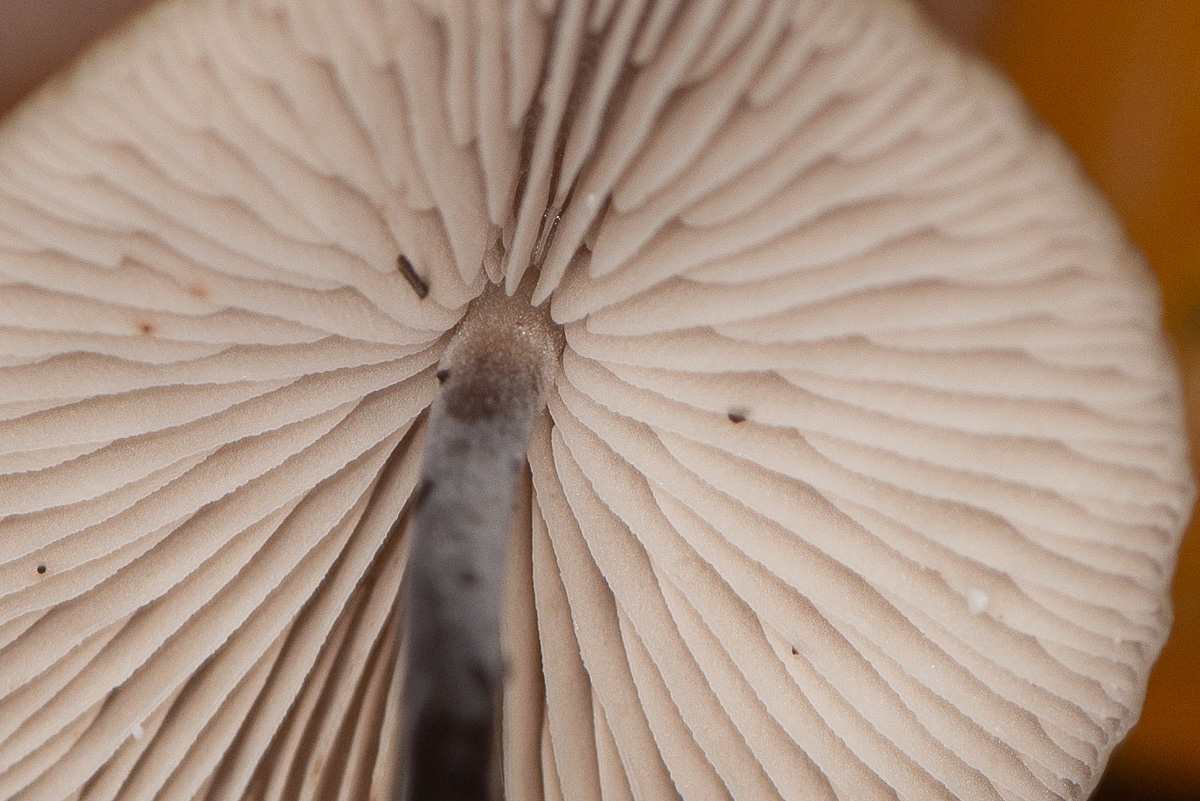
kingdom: Fungi
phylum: Basidiomycota
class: Agaricomycetes
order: Agaricales
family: Omphalotaceae
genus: Mycetinis
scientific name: Mycetinis alliaceus
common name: stor løghat
